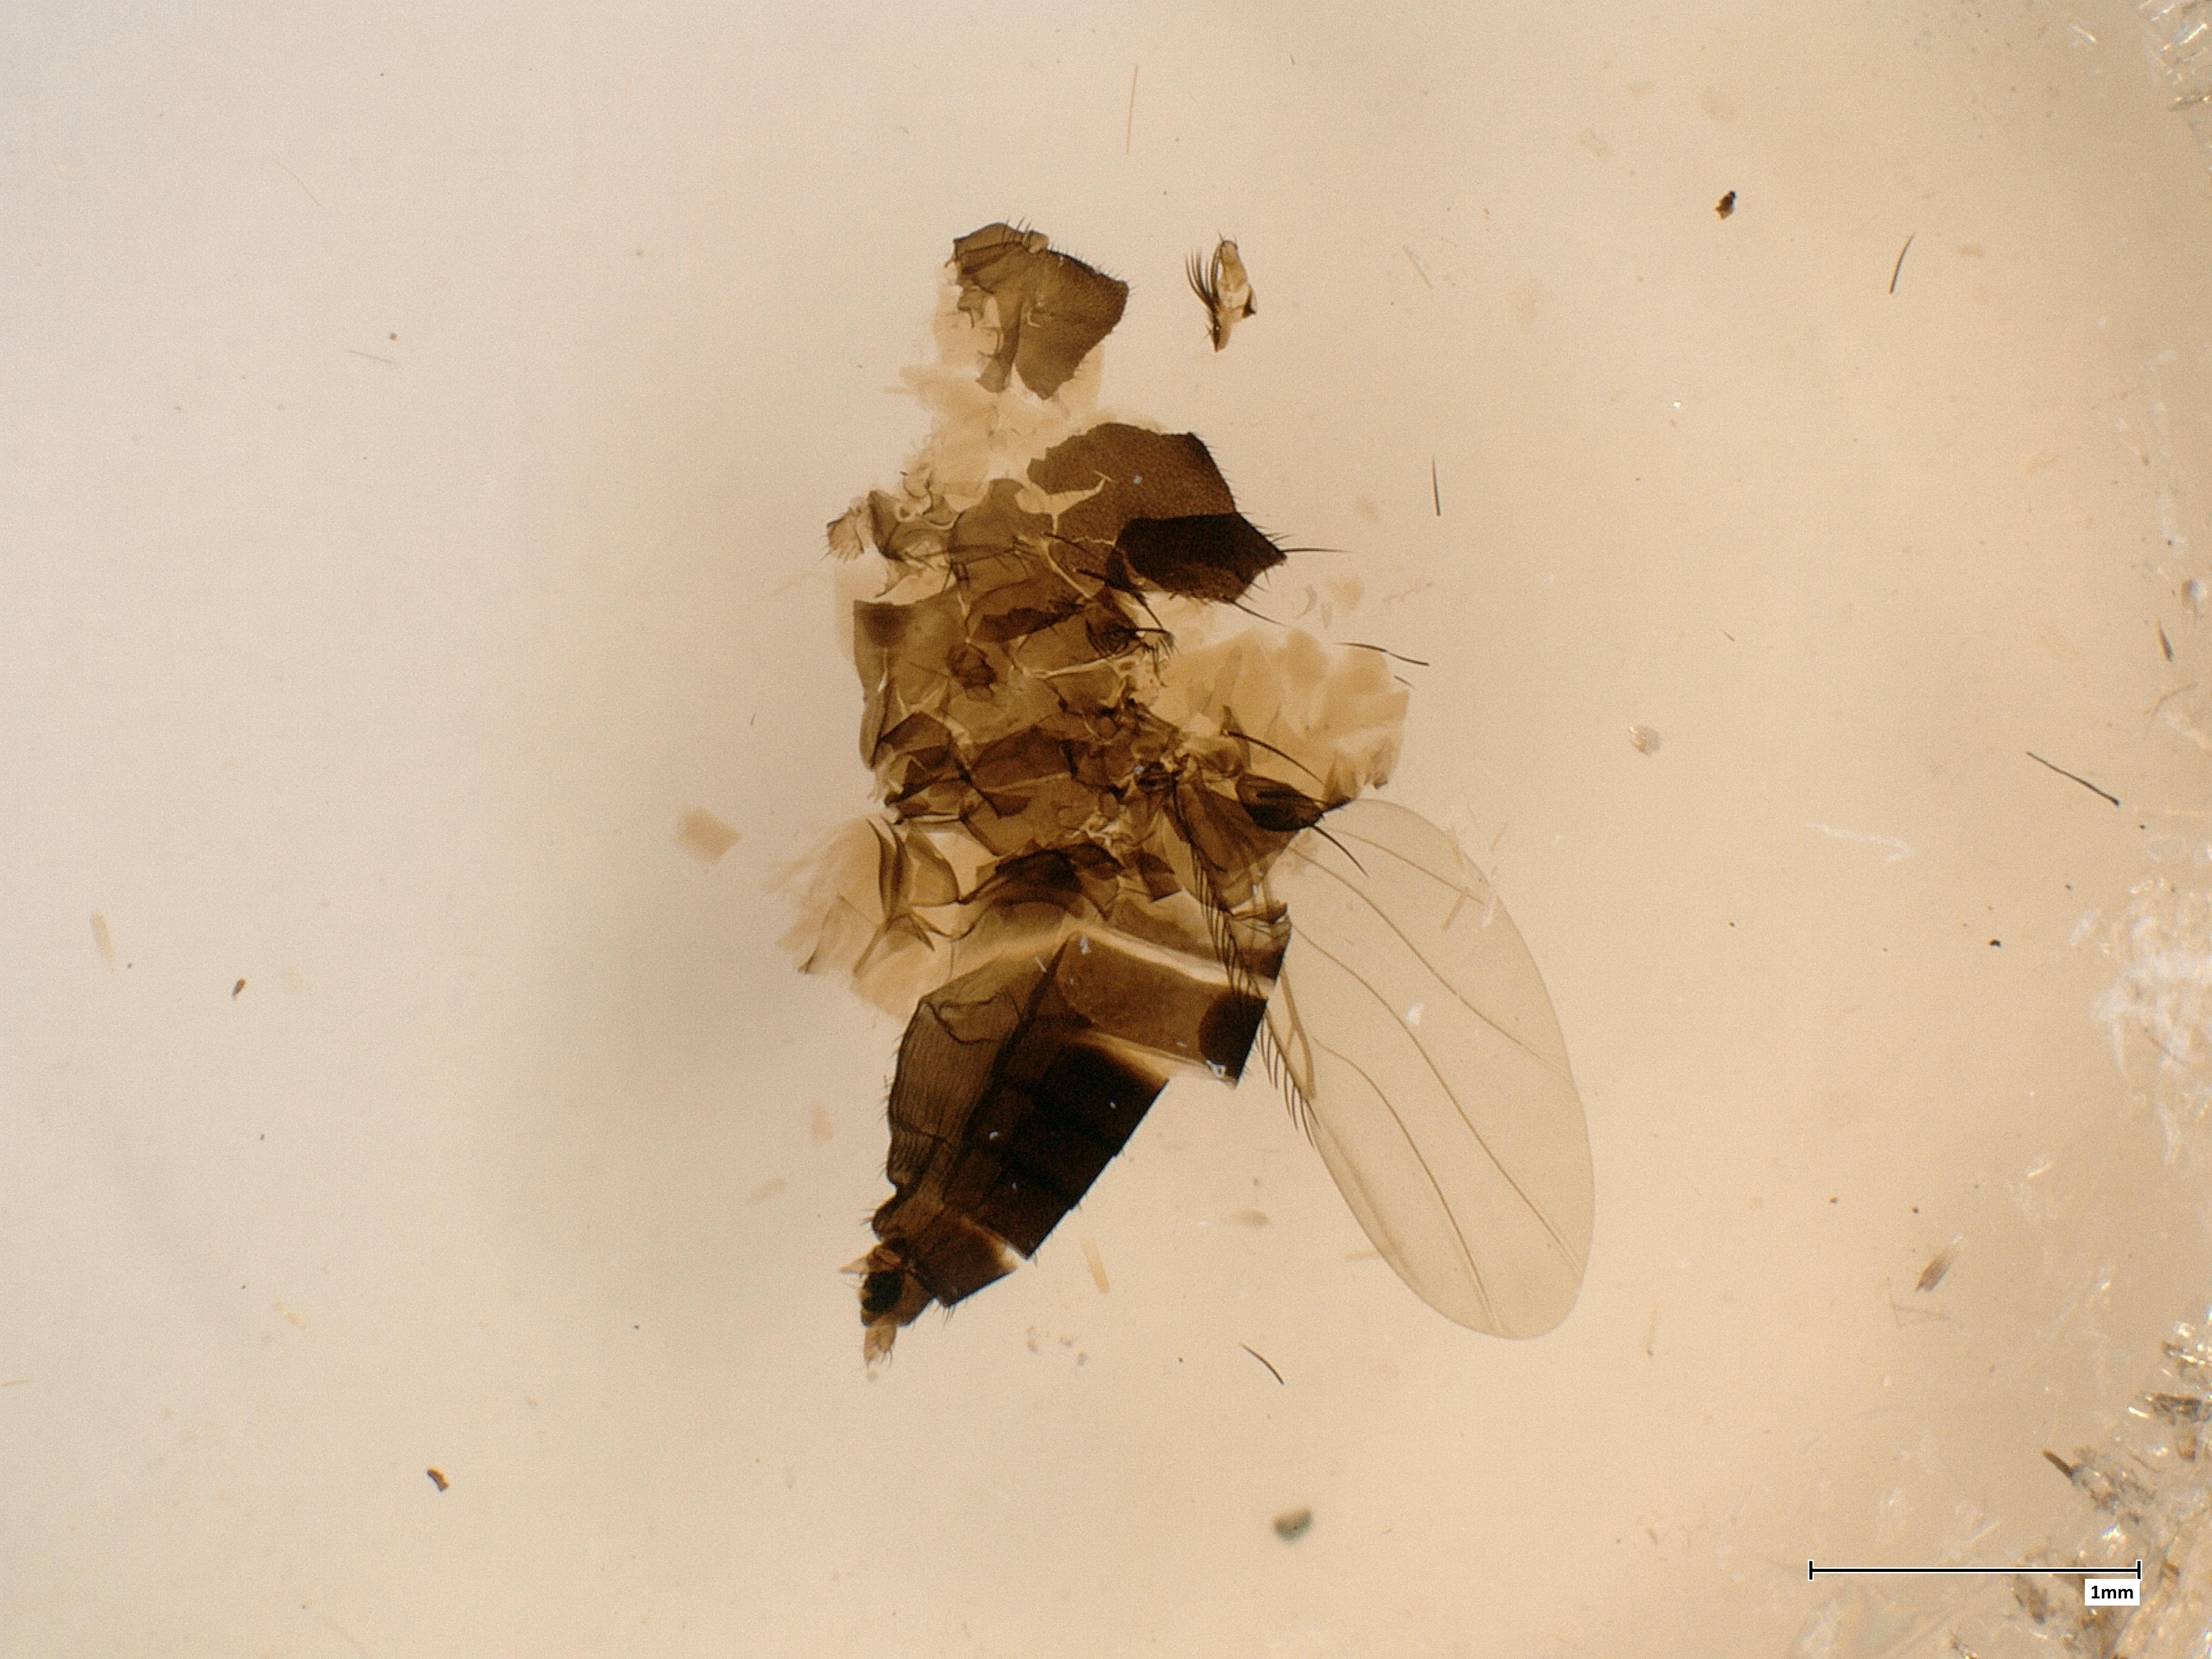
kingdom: Animalia
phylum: Arthropoda
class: Insecta
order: Diptera
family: Phoridae
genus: Megaselia
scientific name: Megaselia consetigera
